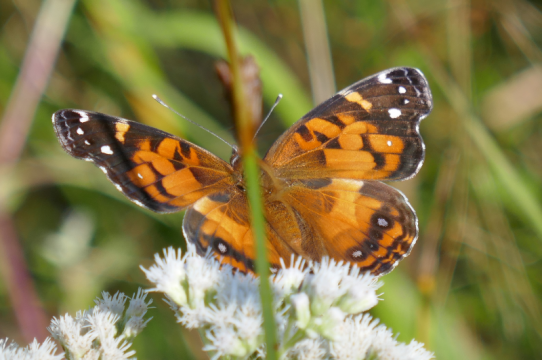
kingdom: Animalia
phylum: Arthropoda
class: Insecta
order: Lepidoptera
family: Nymphalidae
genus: Vanessa
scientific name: Vanessa virginiensis
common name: American Lady
